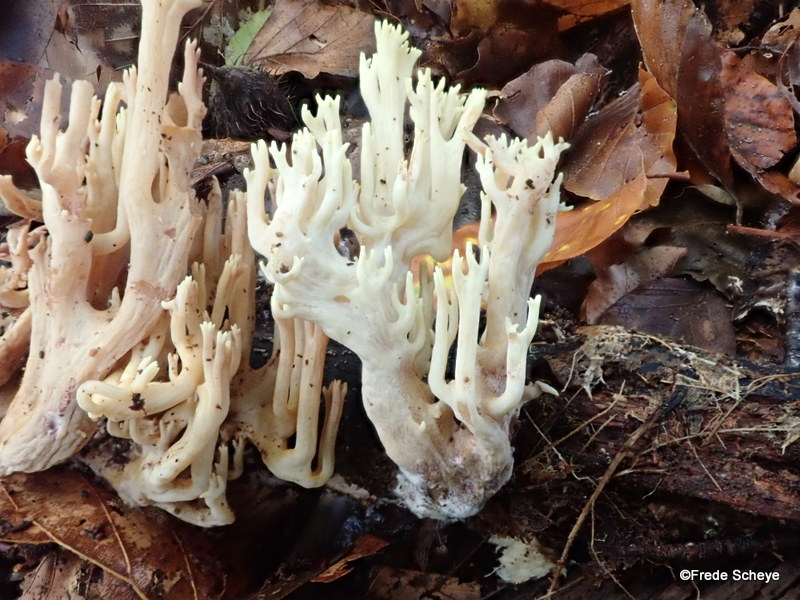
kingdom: Fungi
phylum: Basidiomycota
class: Agaricomycetes
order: Gomphales
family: Gomphaceae
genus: Ramaria
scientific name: Ramaria stricta
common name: rank koralsvamp
